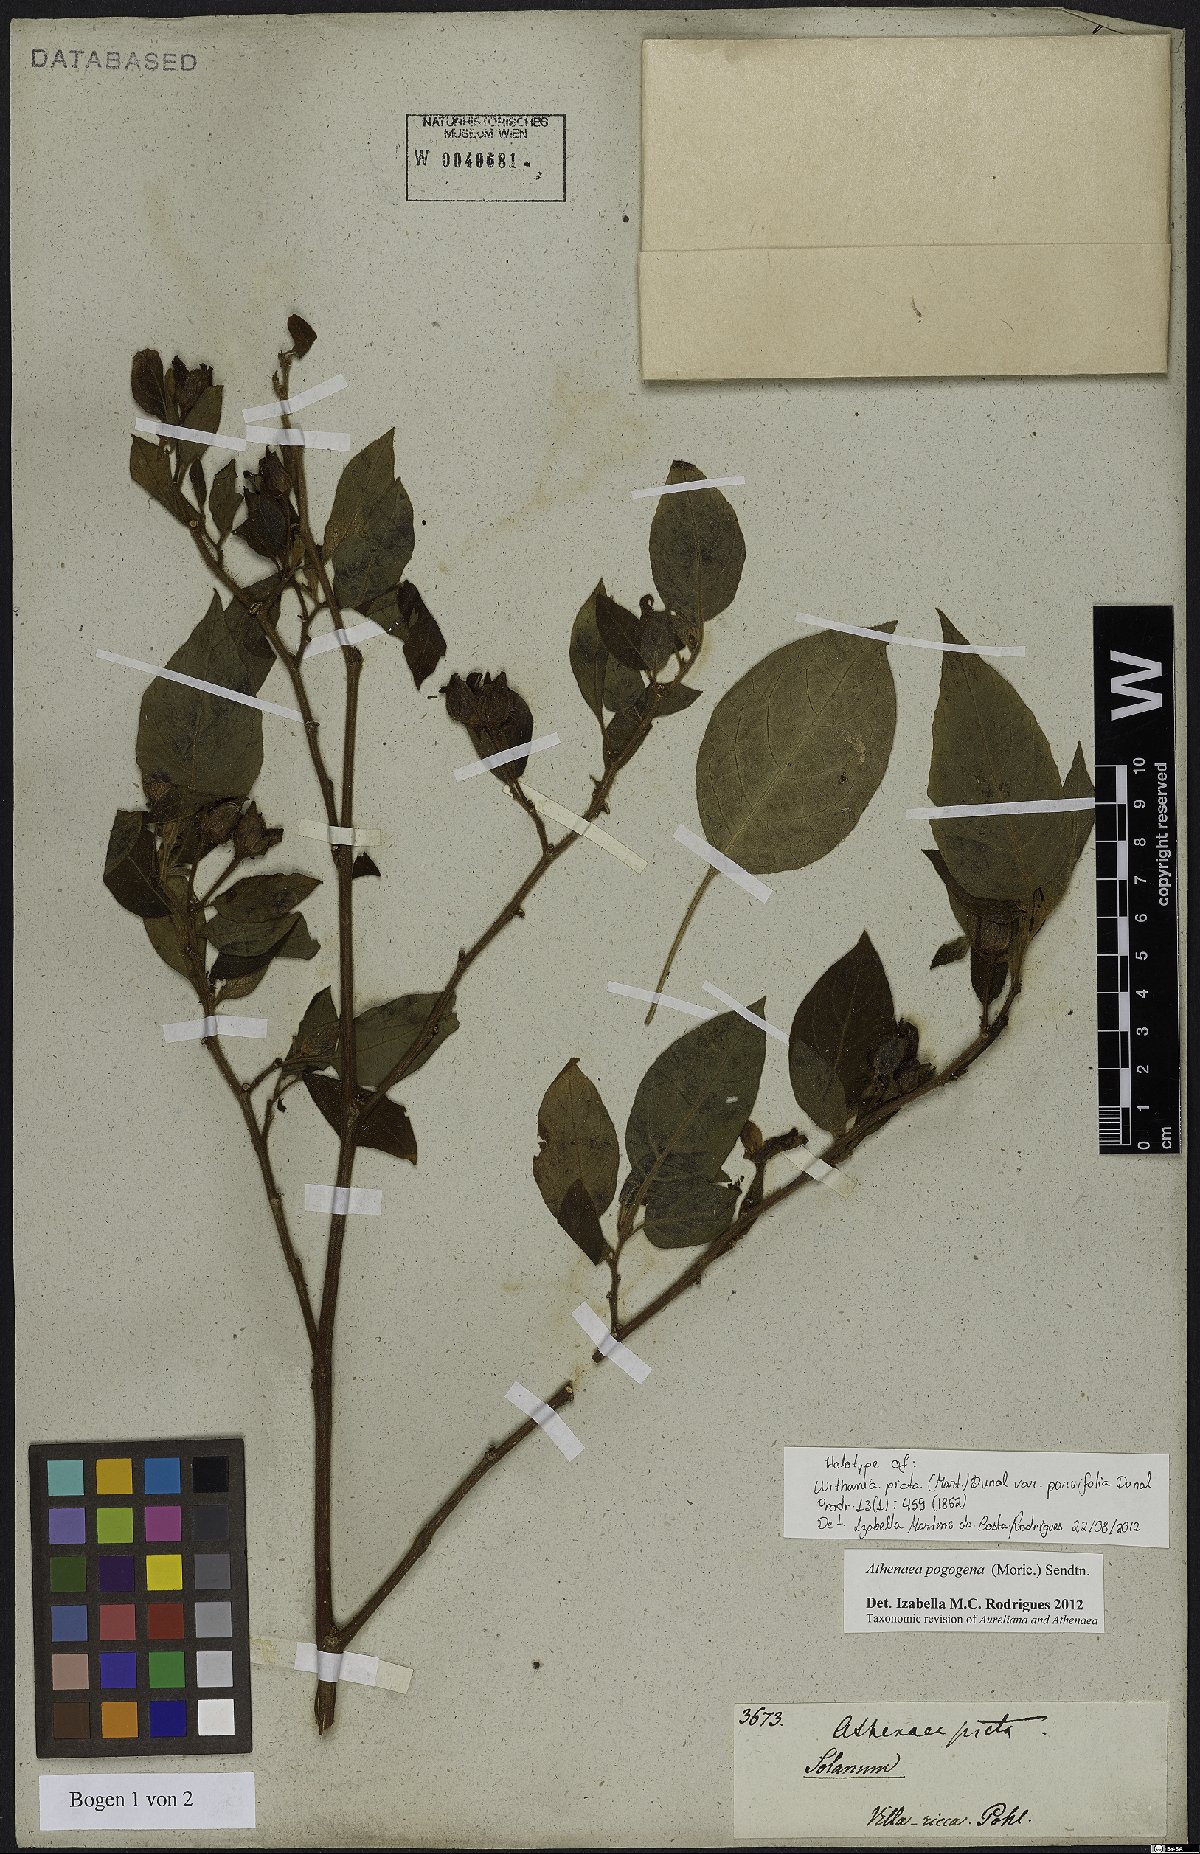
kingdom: Plantae
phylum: Tracheophyta
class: Magnoliopsida
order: Solanales
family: Solanaceae
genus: Athenaea
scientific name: Athenaea pogogena
